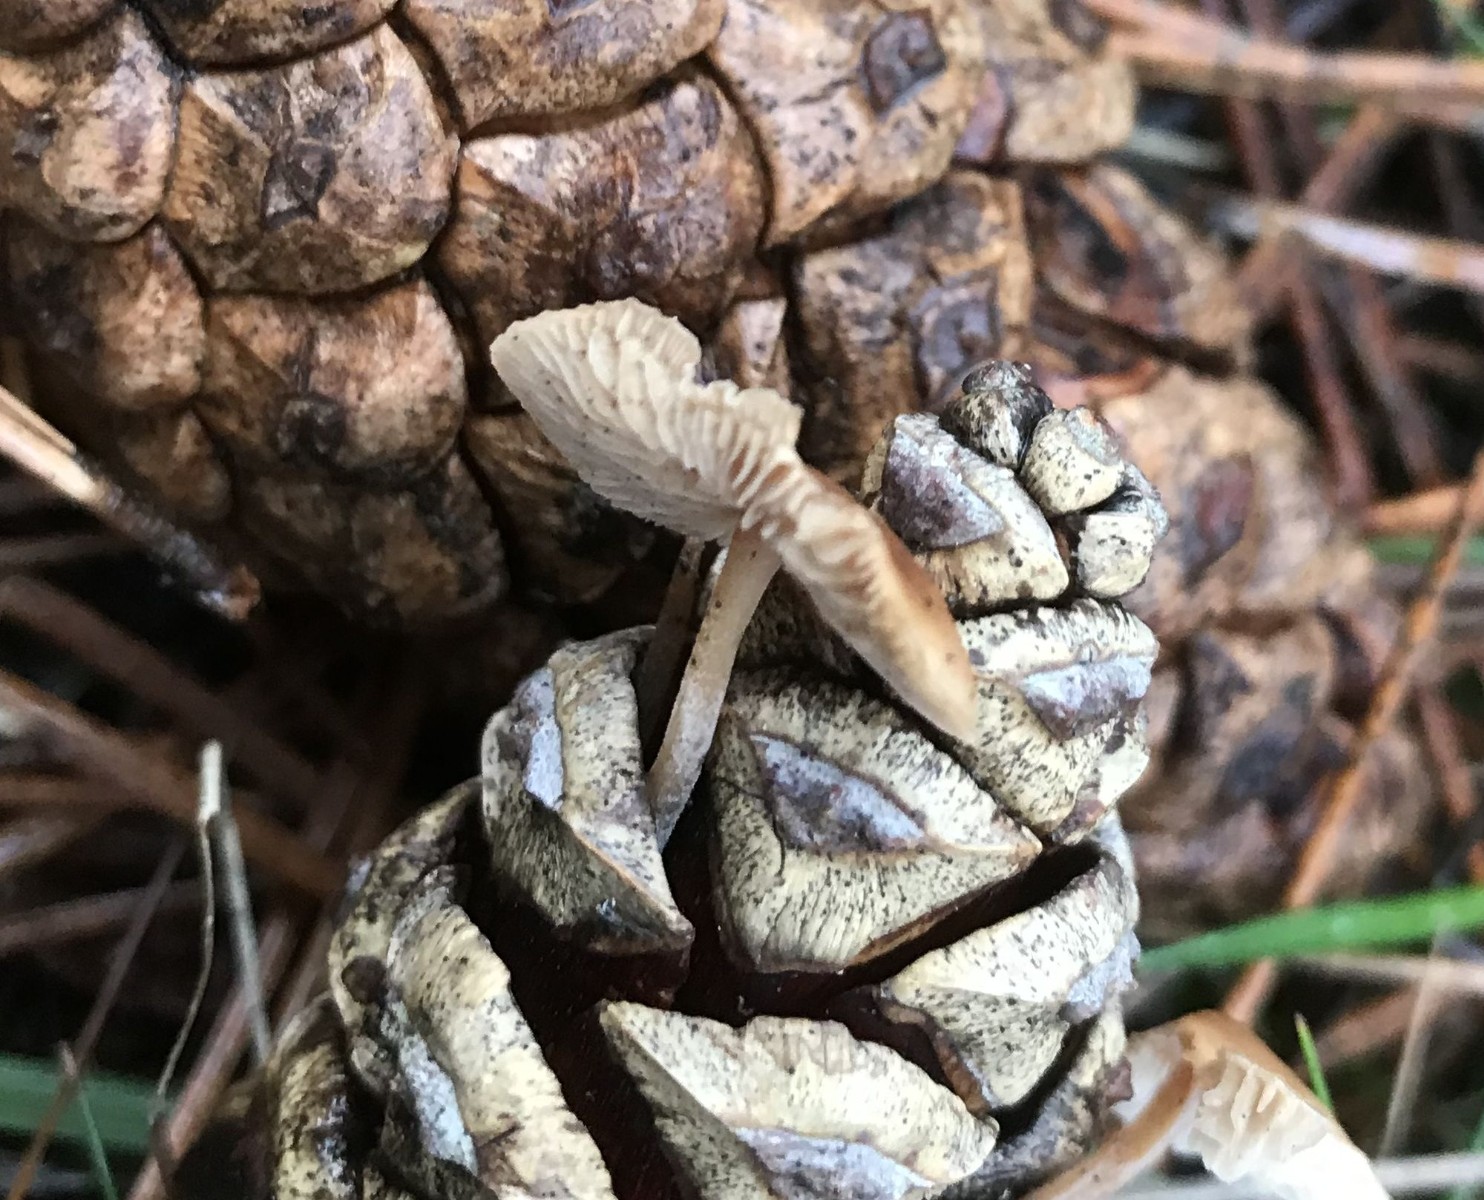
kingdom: Fungi
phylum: Basidiomycota
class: Agaricomycetes
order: Agaricales
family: Marasmiaceae
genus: Baeospora
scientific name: Baeospora myosura
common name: koglebruskhat
